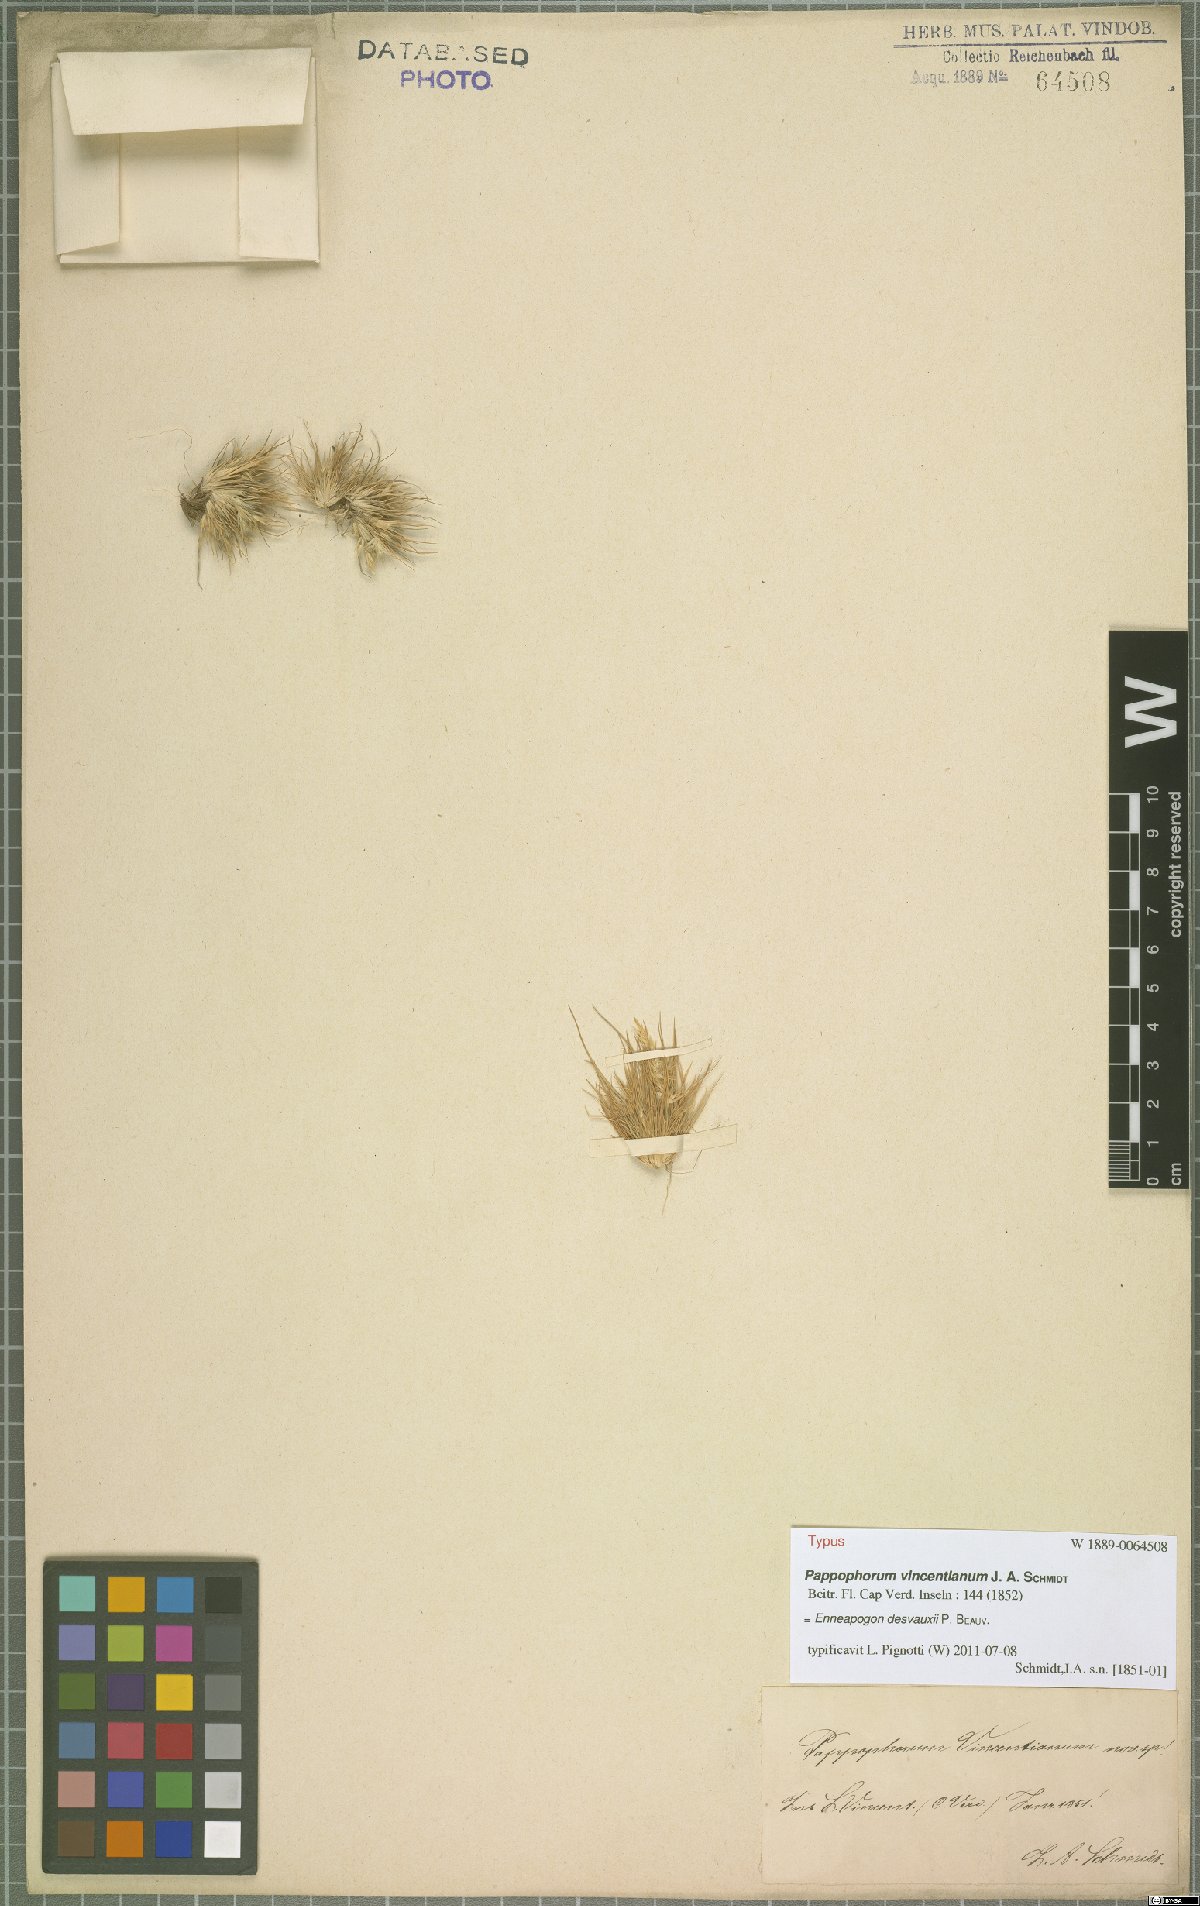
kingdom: Plantae
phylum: Tracheophyta
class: Liliopsida
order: Poales
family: Poaceae
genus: Enneapogon
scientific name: Enneapogon desvauxii
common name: Feather pappus grass
